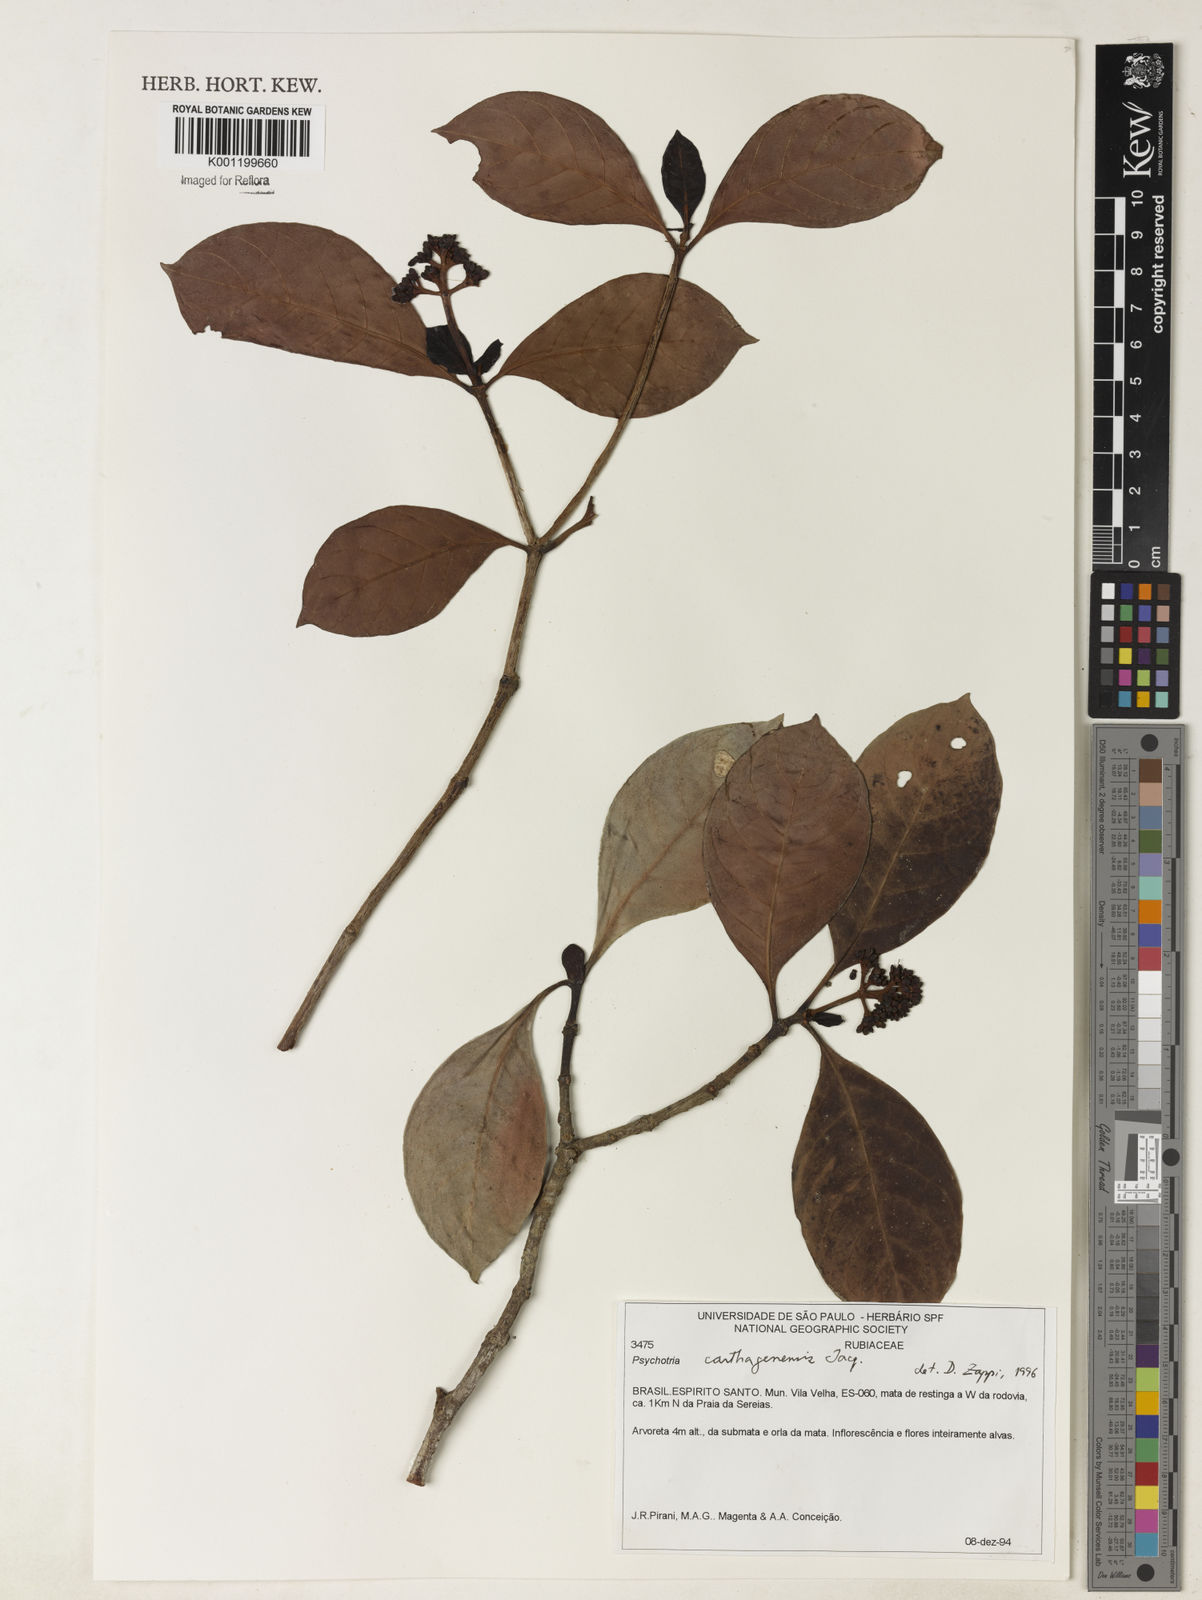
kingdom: Plantae
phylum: Tracheophyta
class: Magnoliopsida
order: Gentianales
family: Rubiaceae
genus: Psychotria
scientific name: Psychotria carthagenensis
